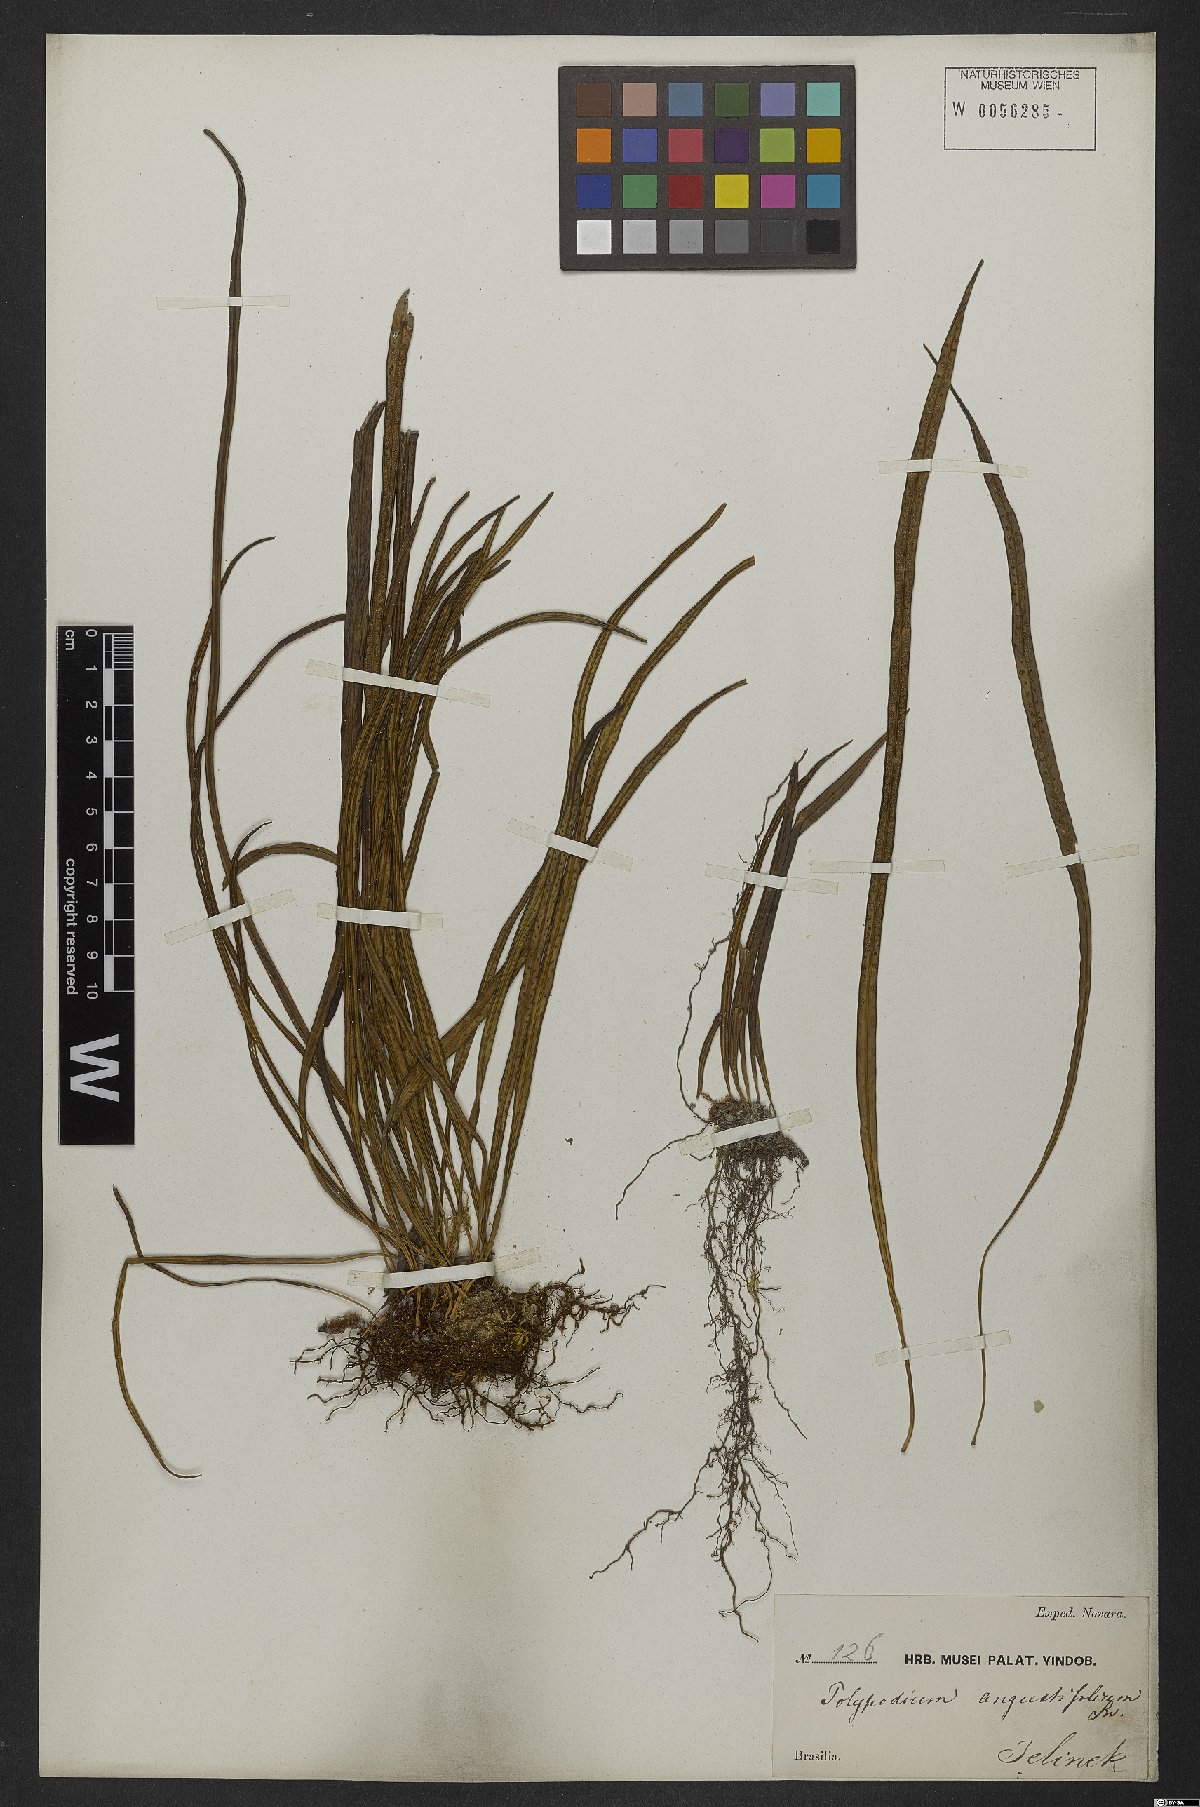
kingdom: Plantae
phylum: Tracheophyta
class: Polypodiopsida
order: Polypodiales
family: Polypodiaceae
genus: Campyloneurum
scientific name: Campyloneurum angustifolium
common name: Narrow-leaf strap fern
